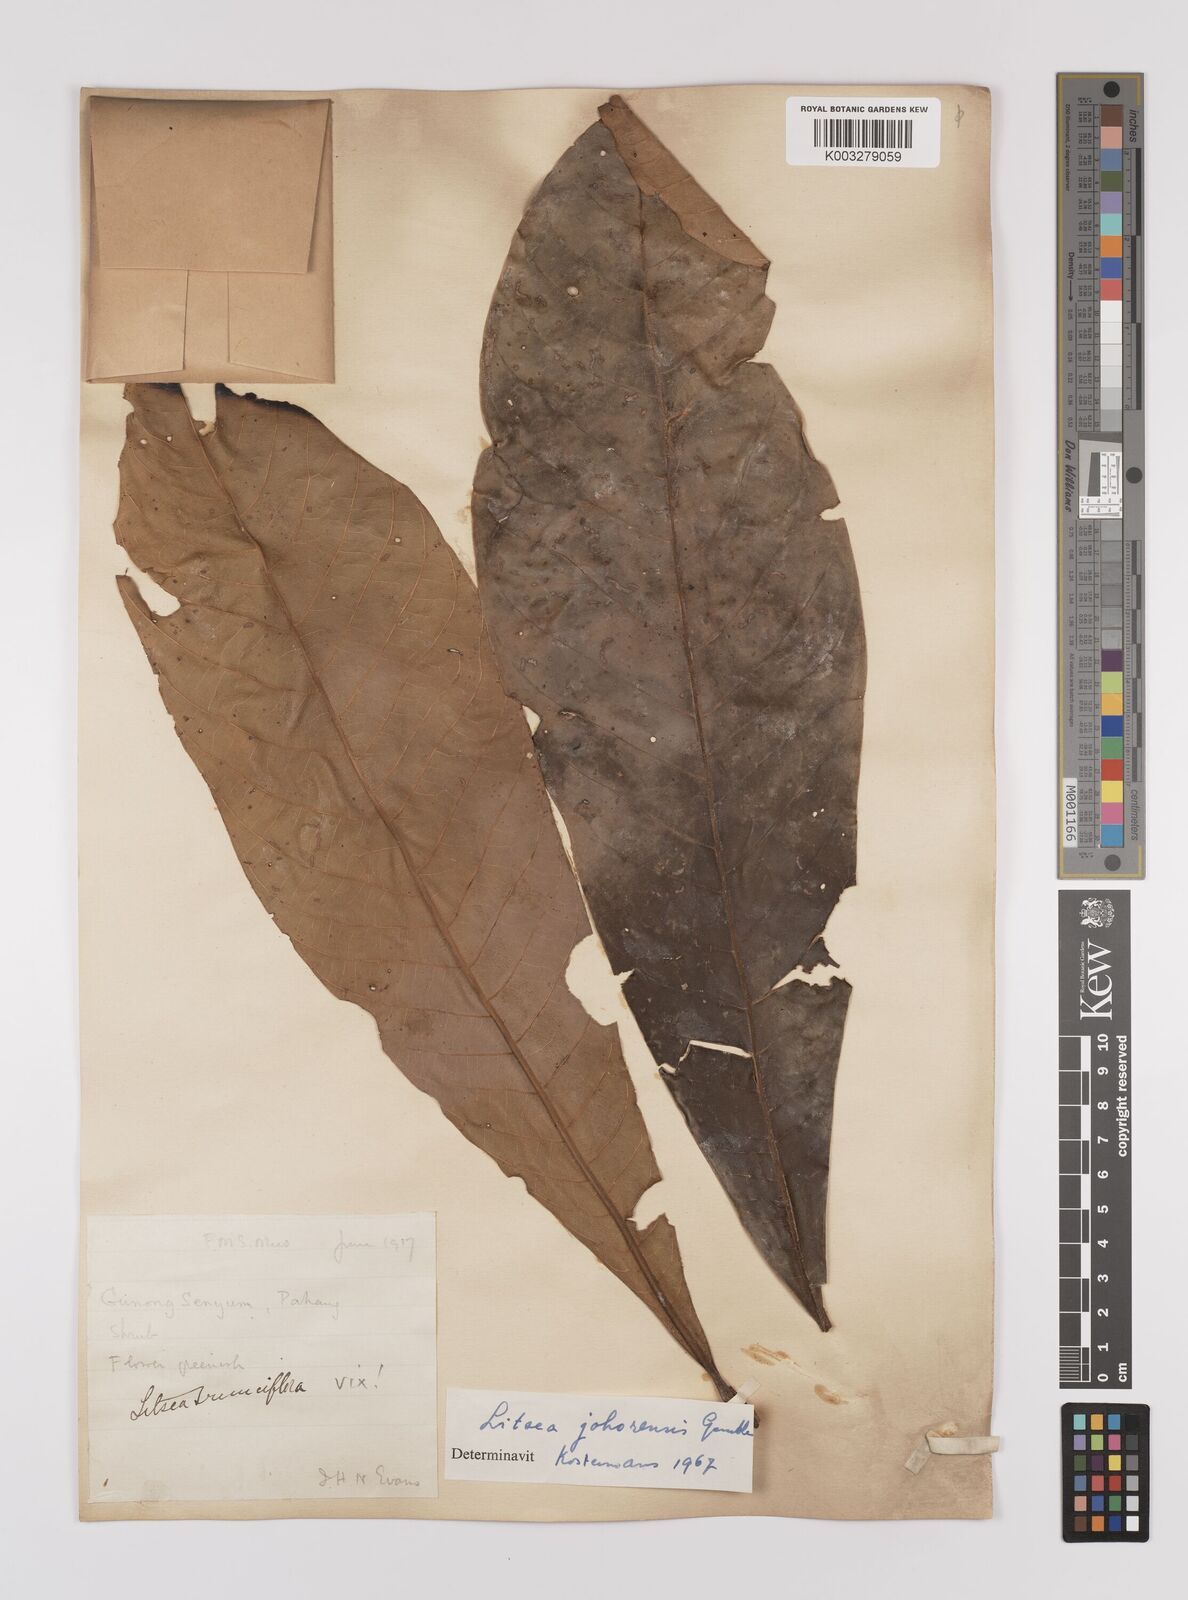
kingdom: Plantae
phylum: Tracheophyta
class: Magnoliopsida
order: Laurales
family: Lauraceae
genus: Litsea
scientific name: Litsea johorensis
